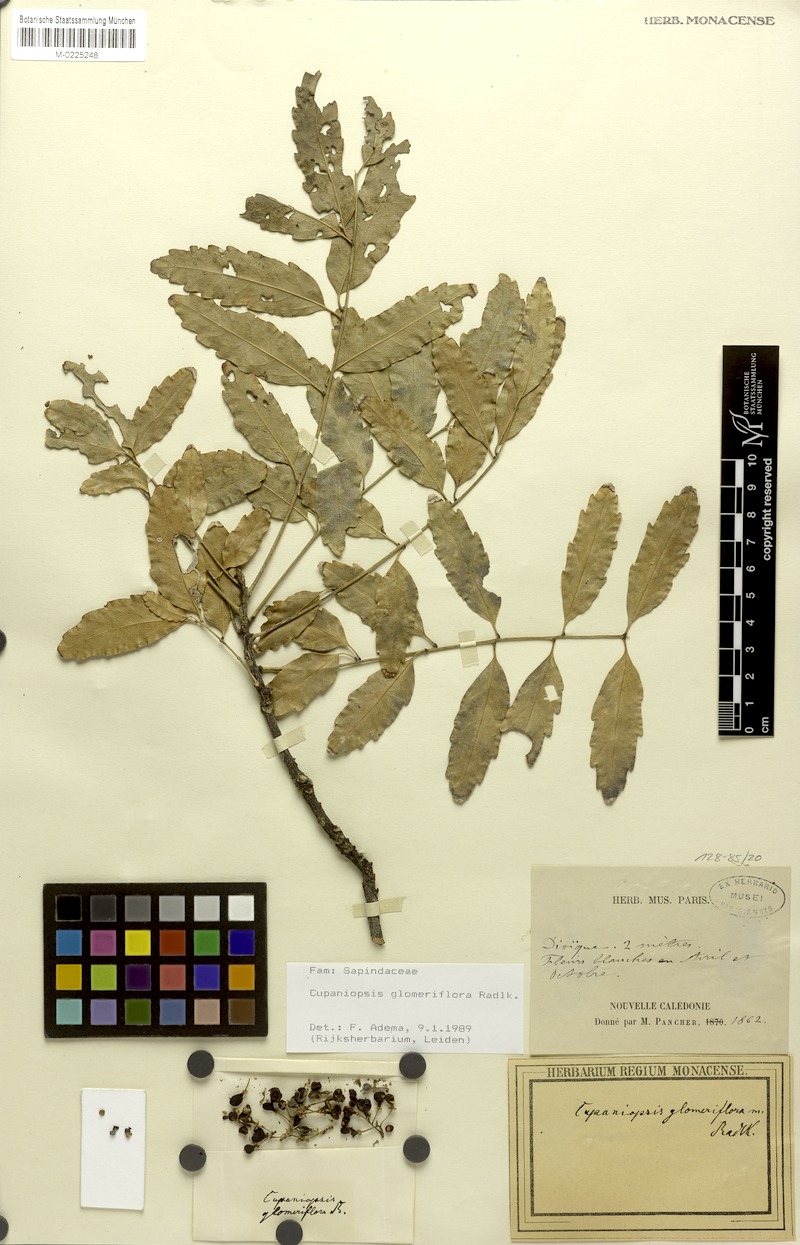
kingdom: Plantae
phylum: Tracheophyta
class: Magnoliopsida
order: Sapindales
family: Sapindaceae
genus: Lepidocupania
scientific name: Lepidocupania glomeriflora
